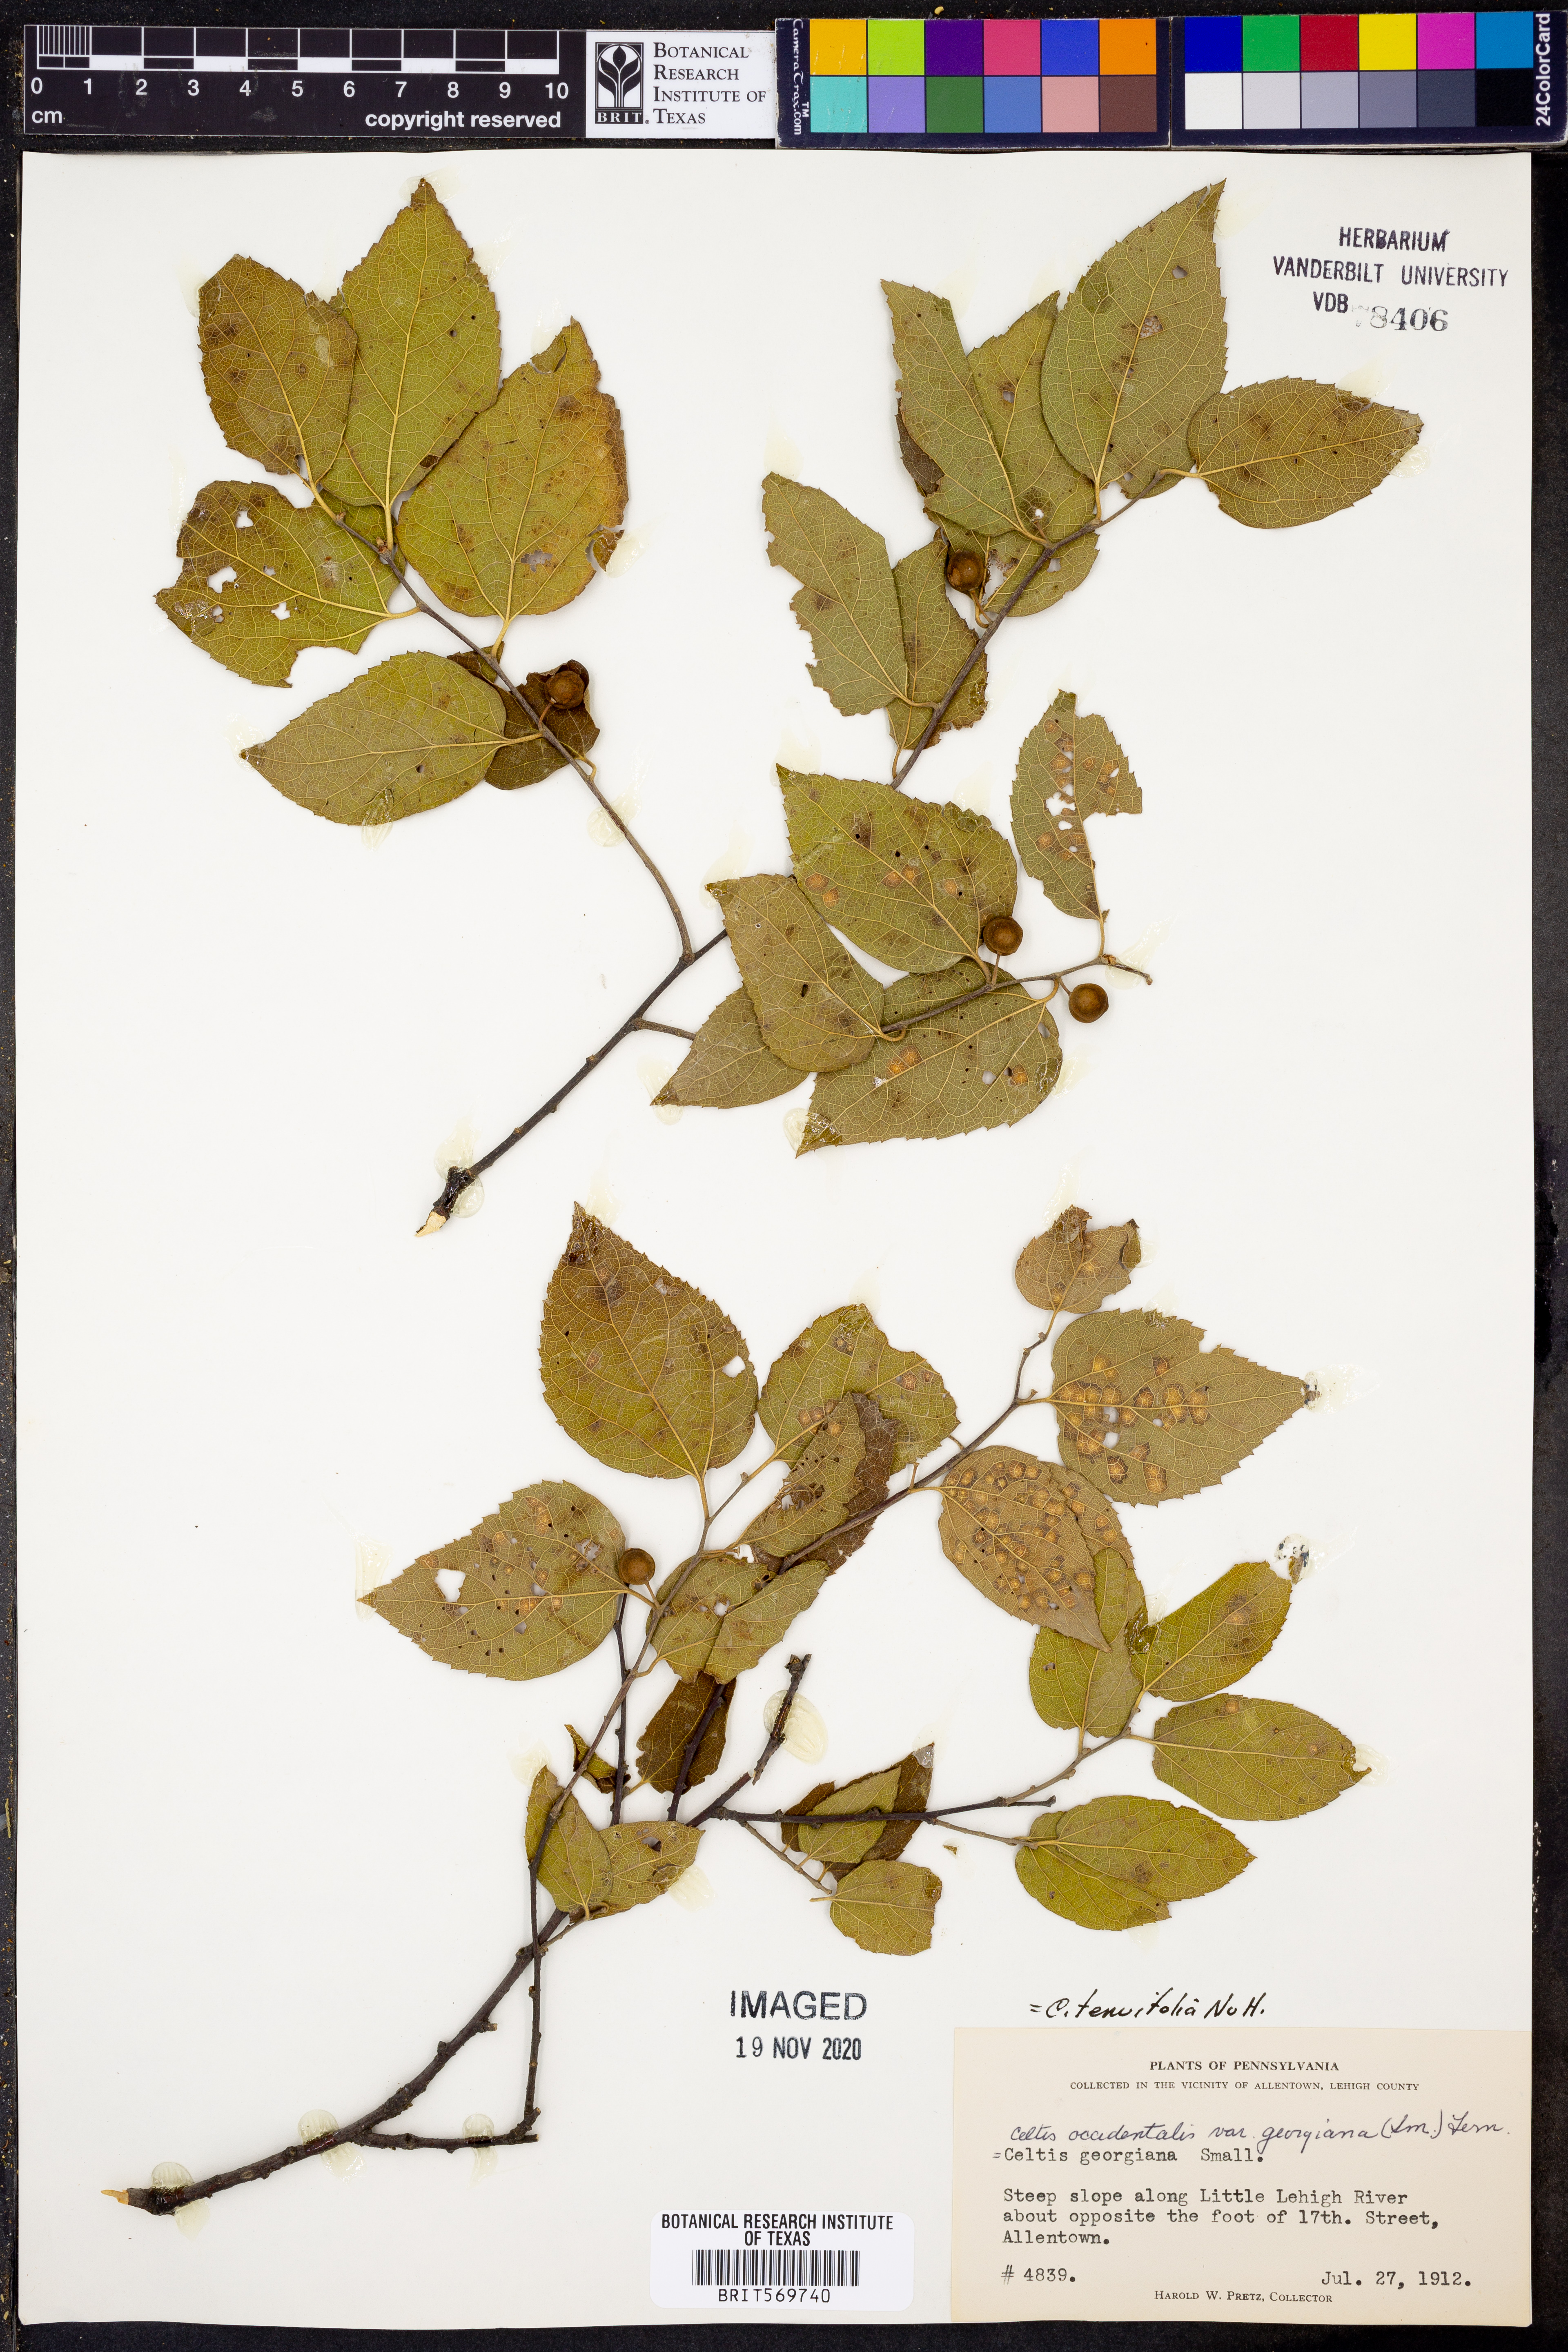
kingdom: Plantae
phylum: Tracheophyta
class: Magnoliopsida
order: Rosales
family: Cannabaceae
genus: Celtis
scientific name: Celtis tenuifolia
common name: Georgia hackberry
